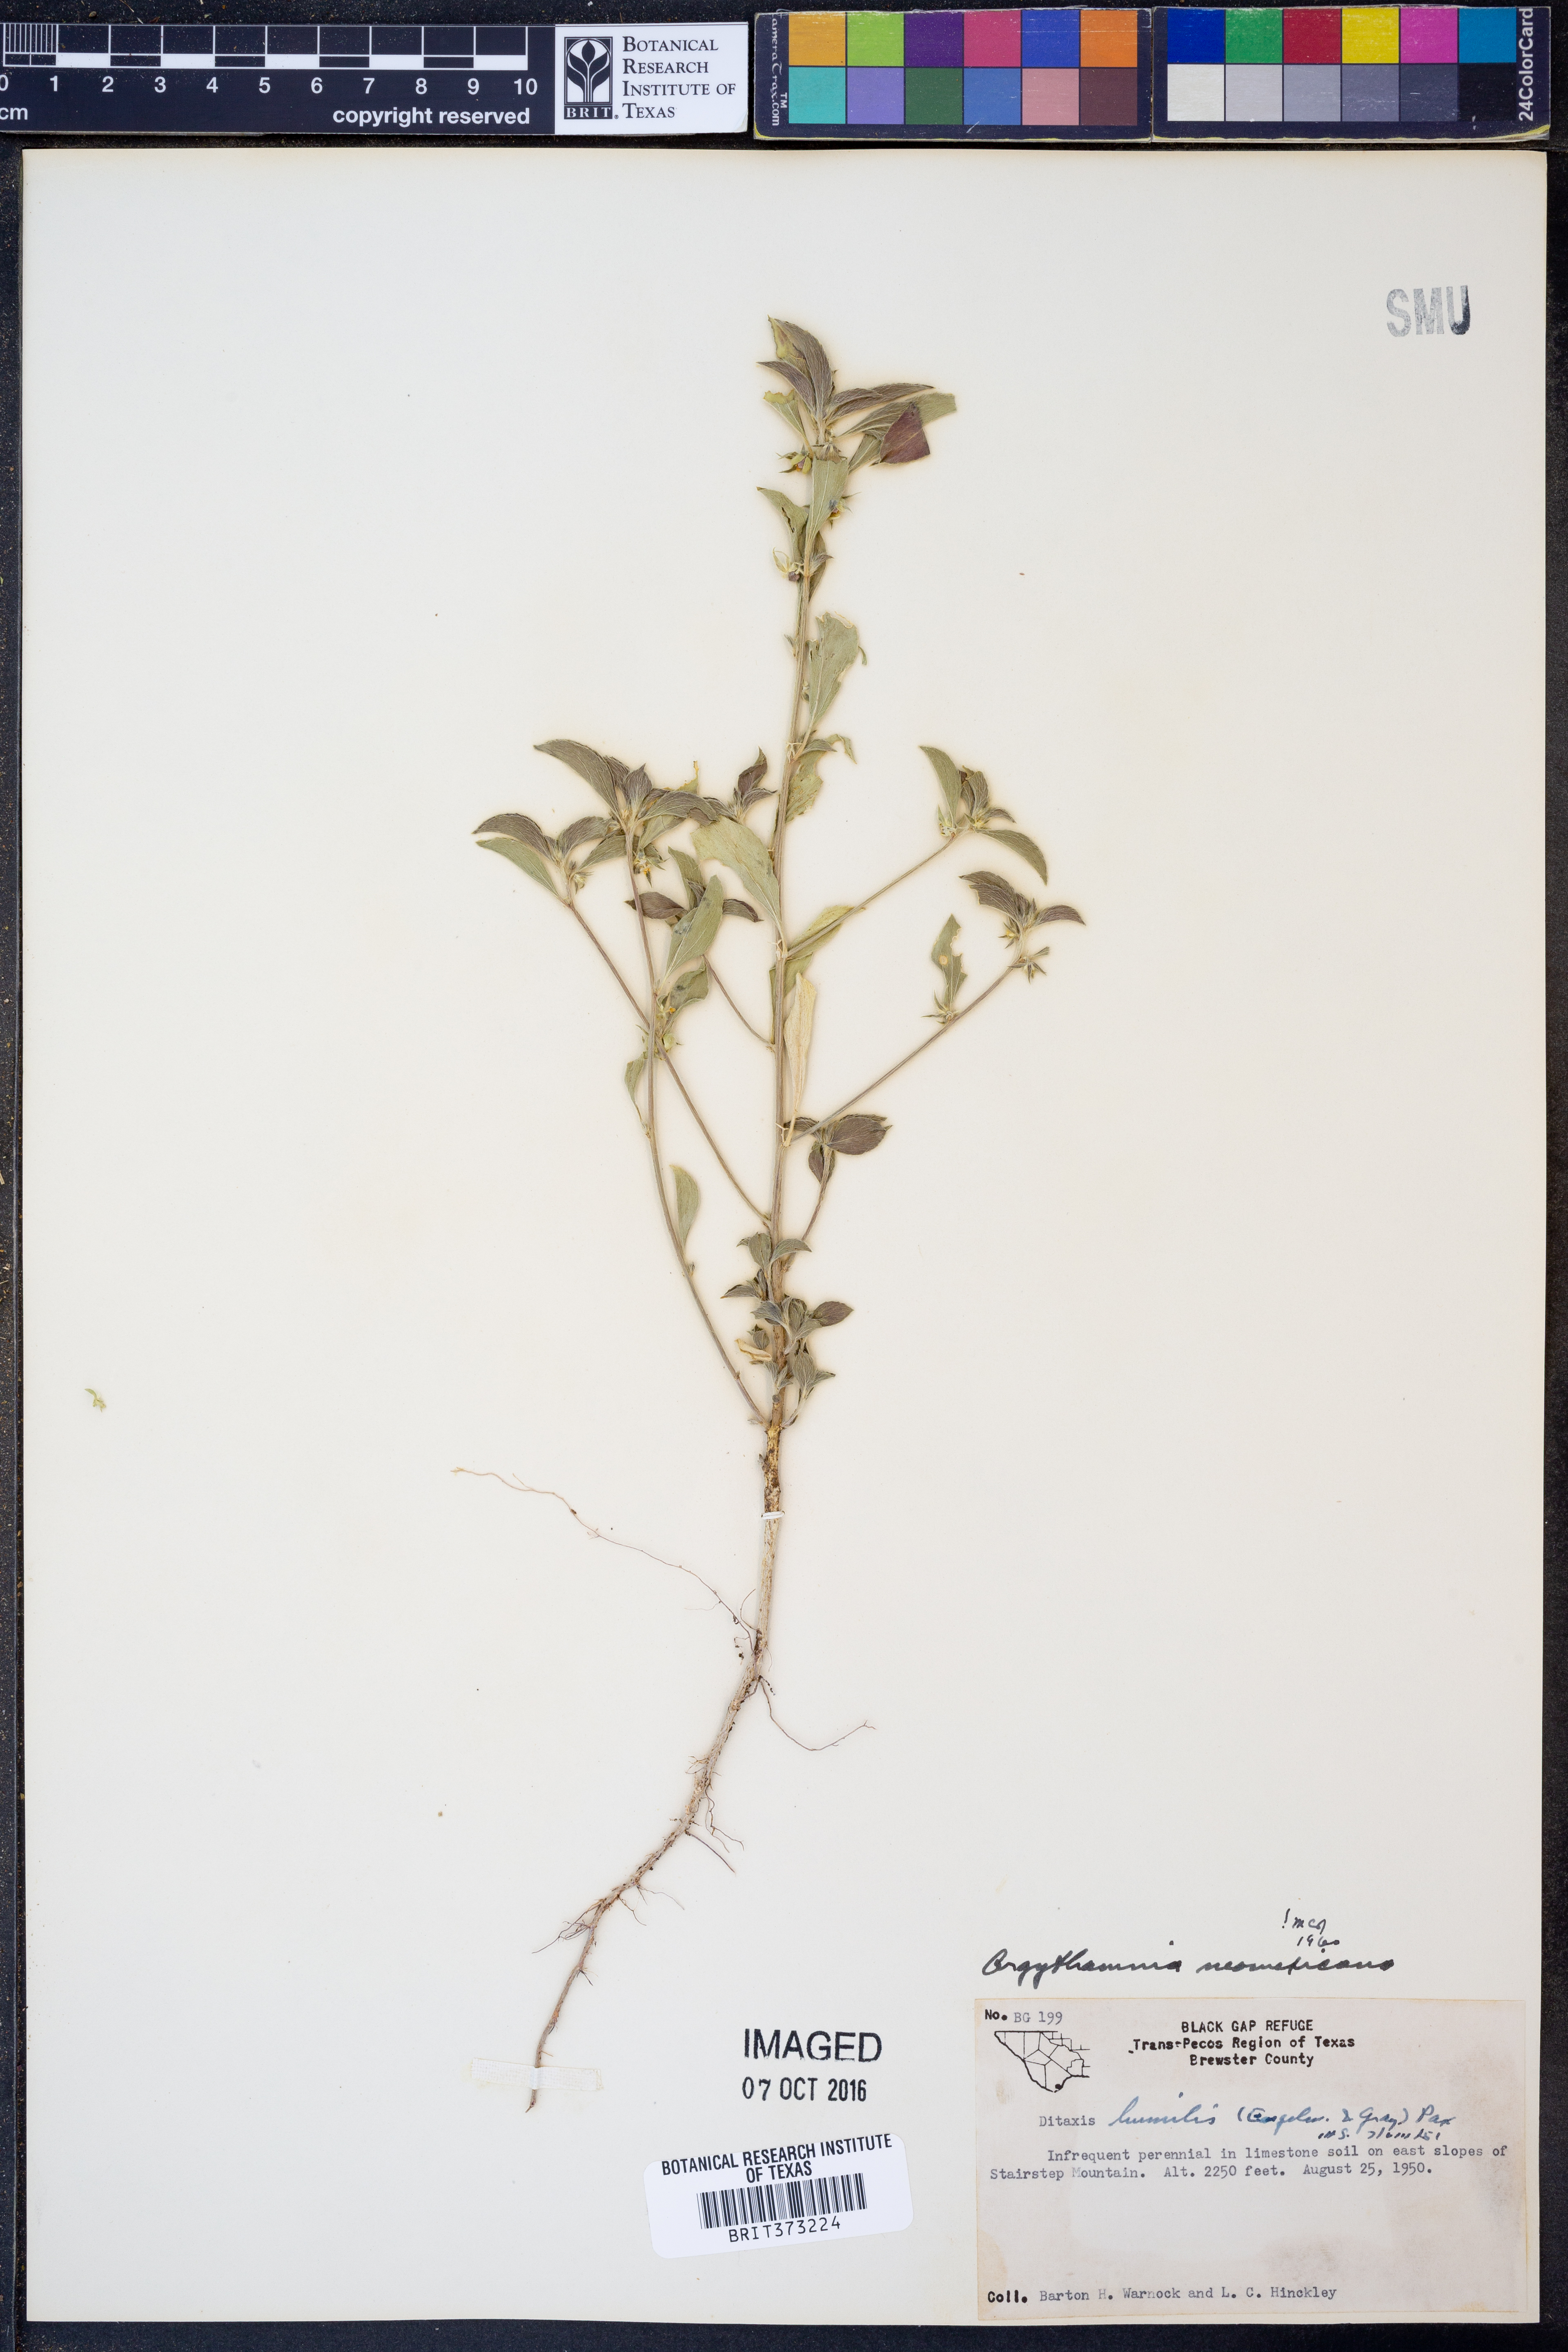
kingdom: Plantae
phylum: Tracheophyta
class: Magnoliopsida
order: Malpighiales
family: Euphorbiaceae
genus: Ditaxis
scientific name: Ditaxis serrata
